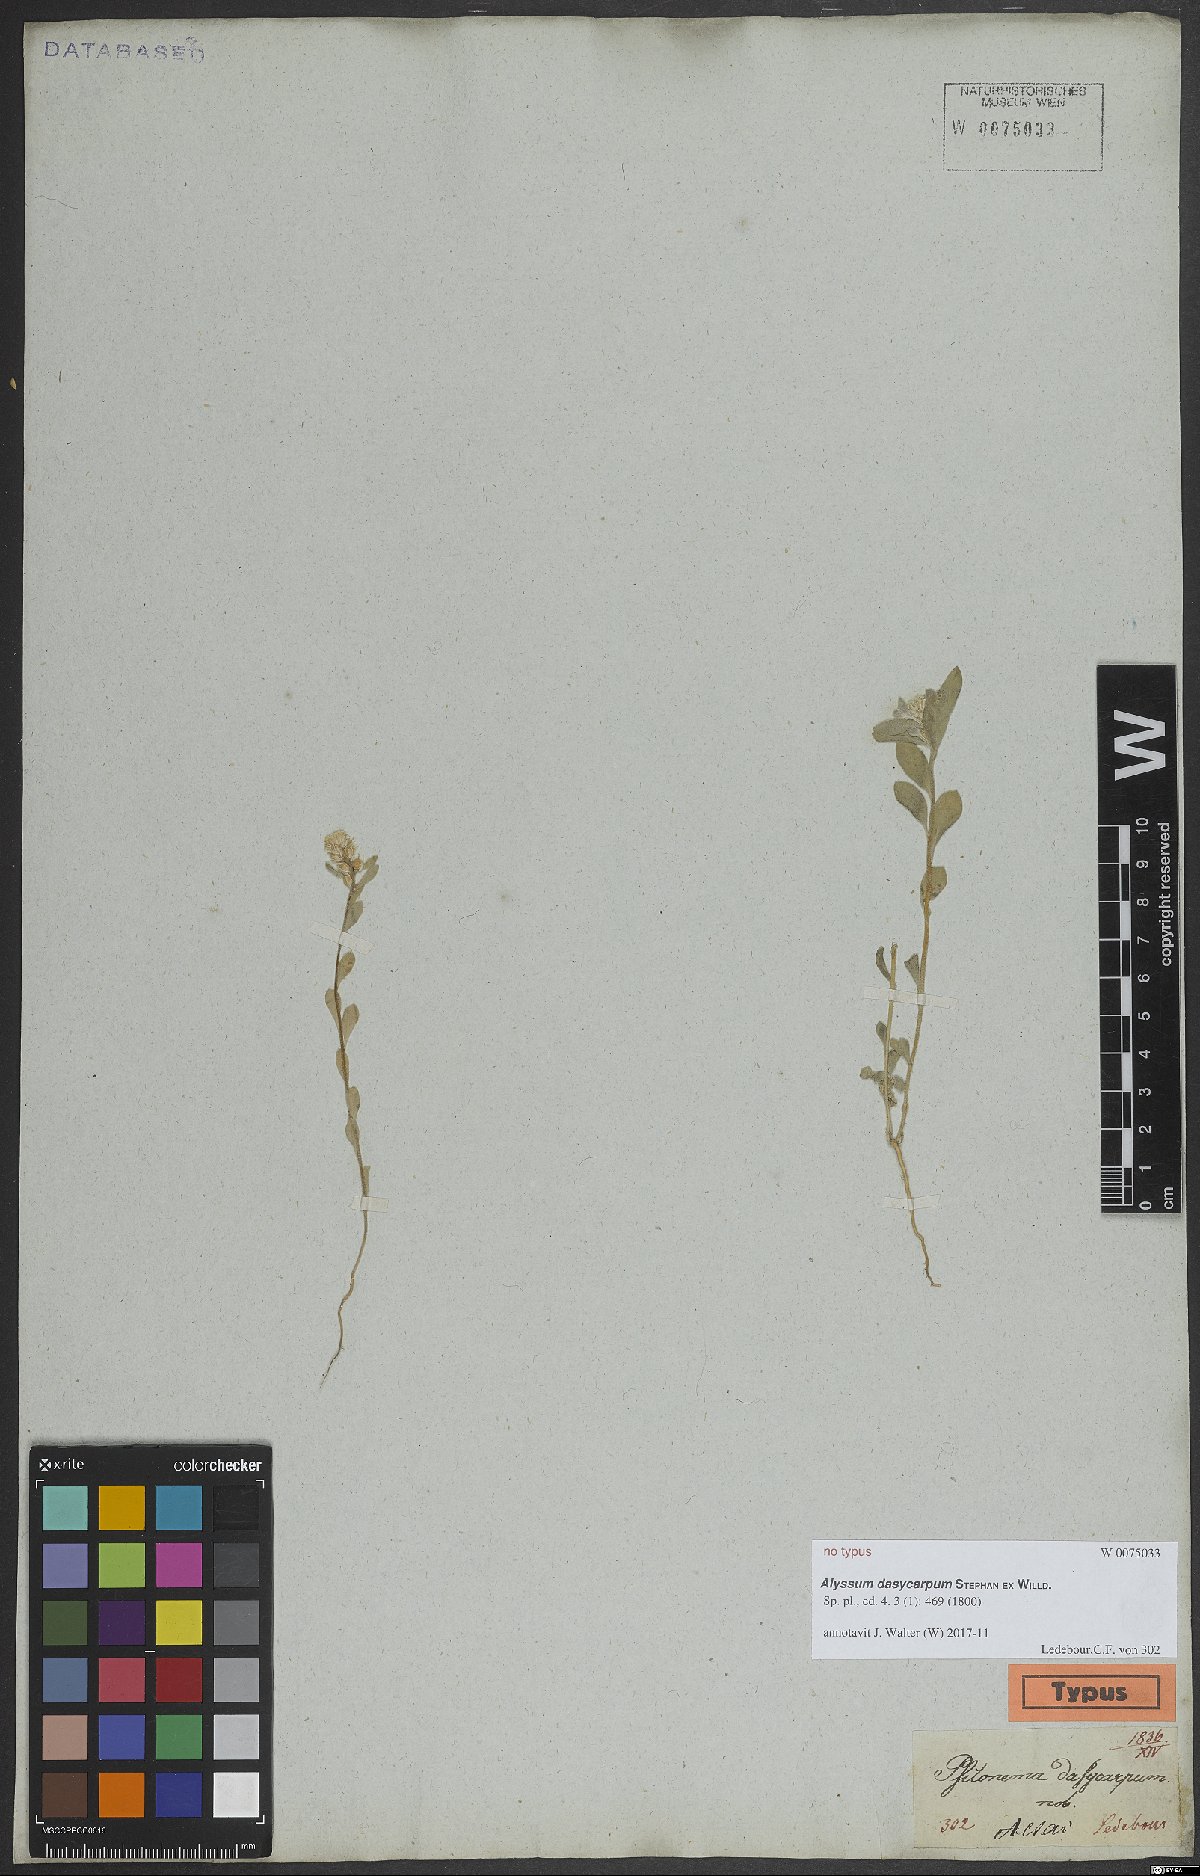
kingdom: Plantae
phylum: Tracheophyta
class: Magnoliopsida
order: Brassicales
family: Brassicaceae
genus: Alyssum
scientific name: Alyssum dasycarpum
